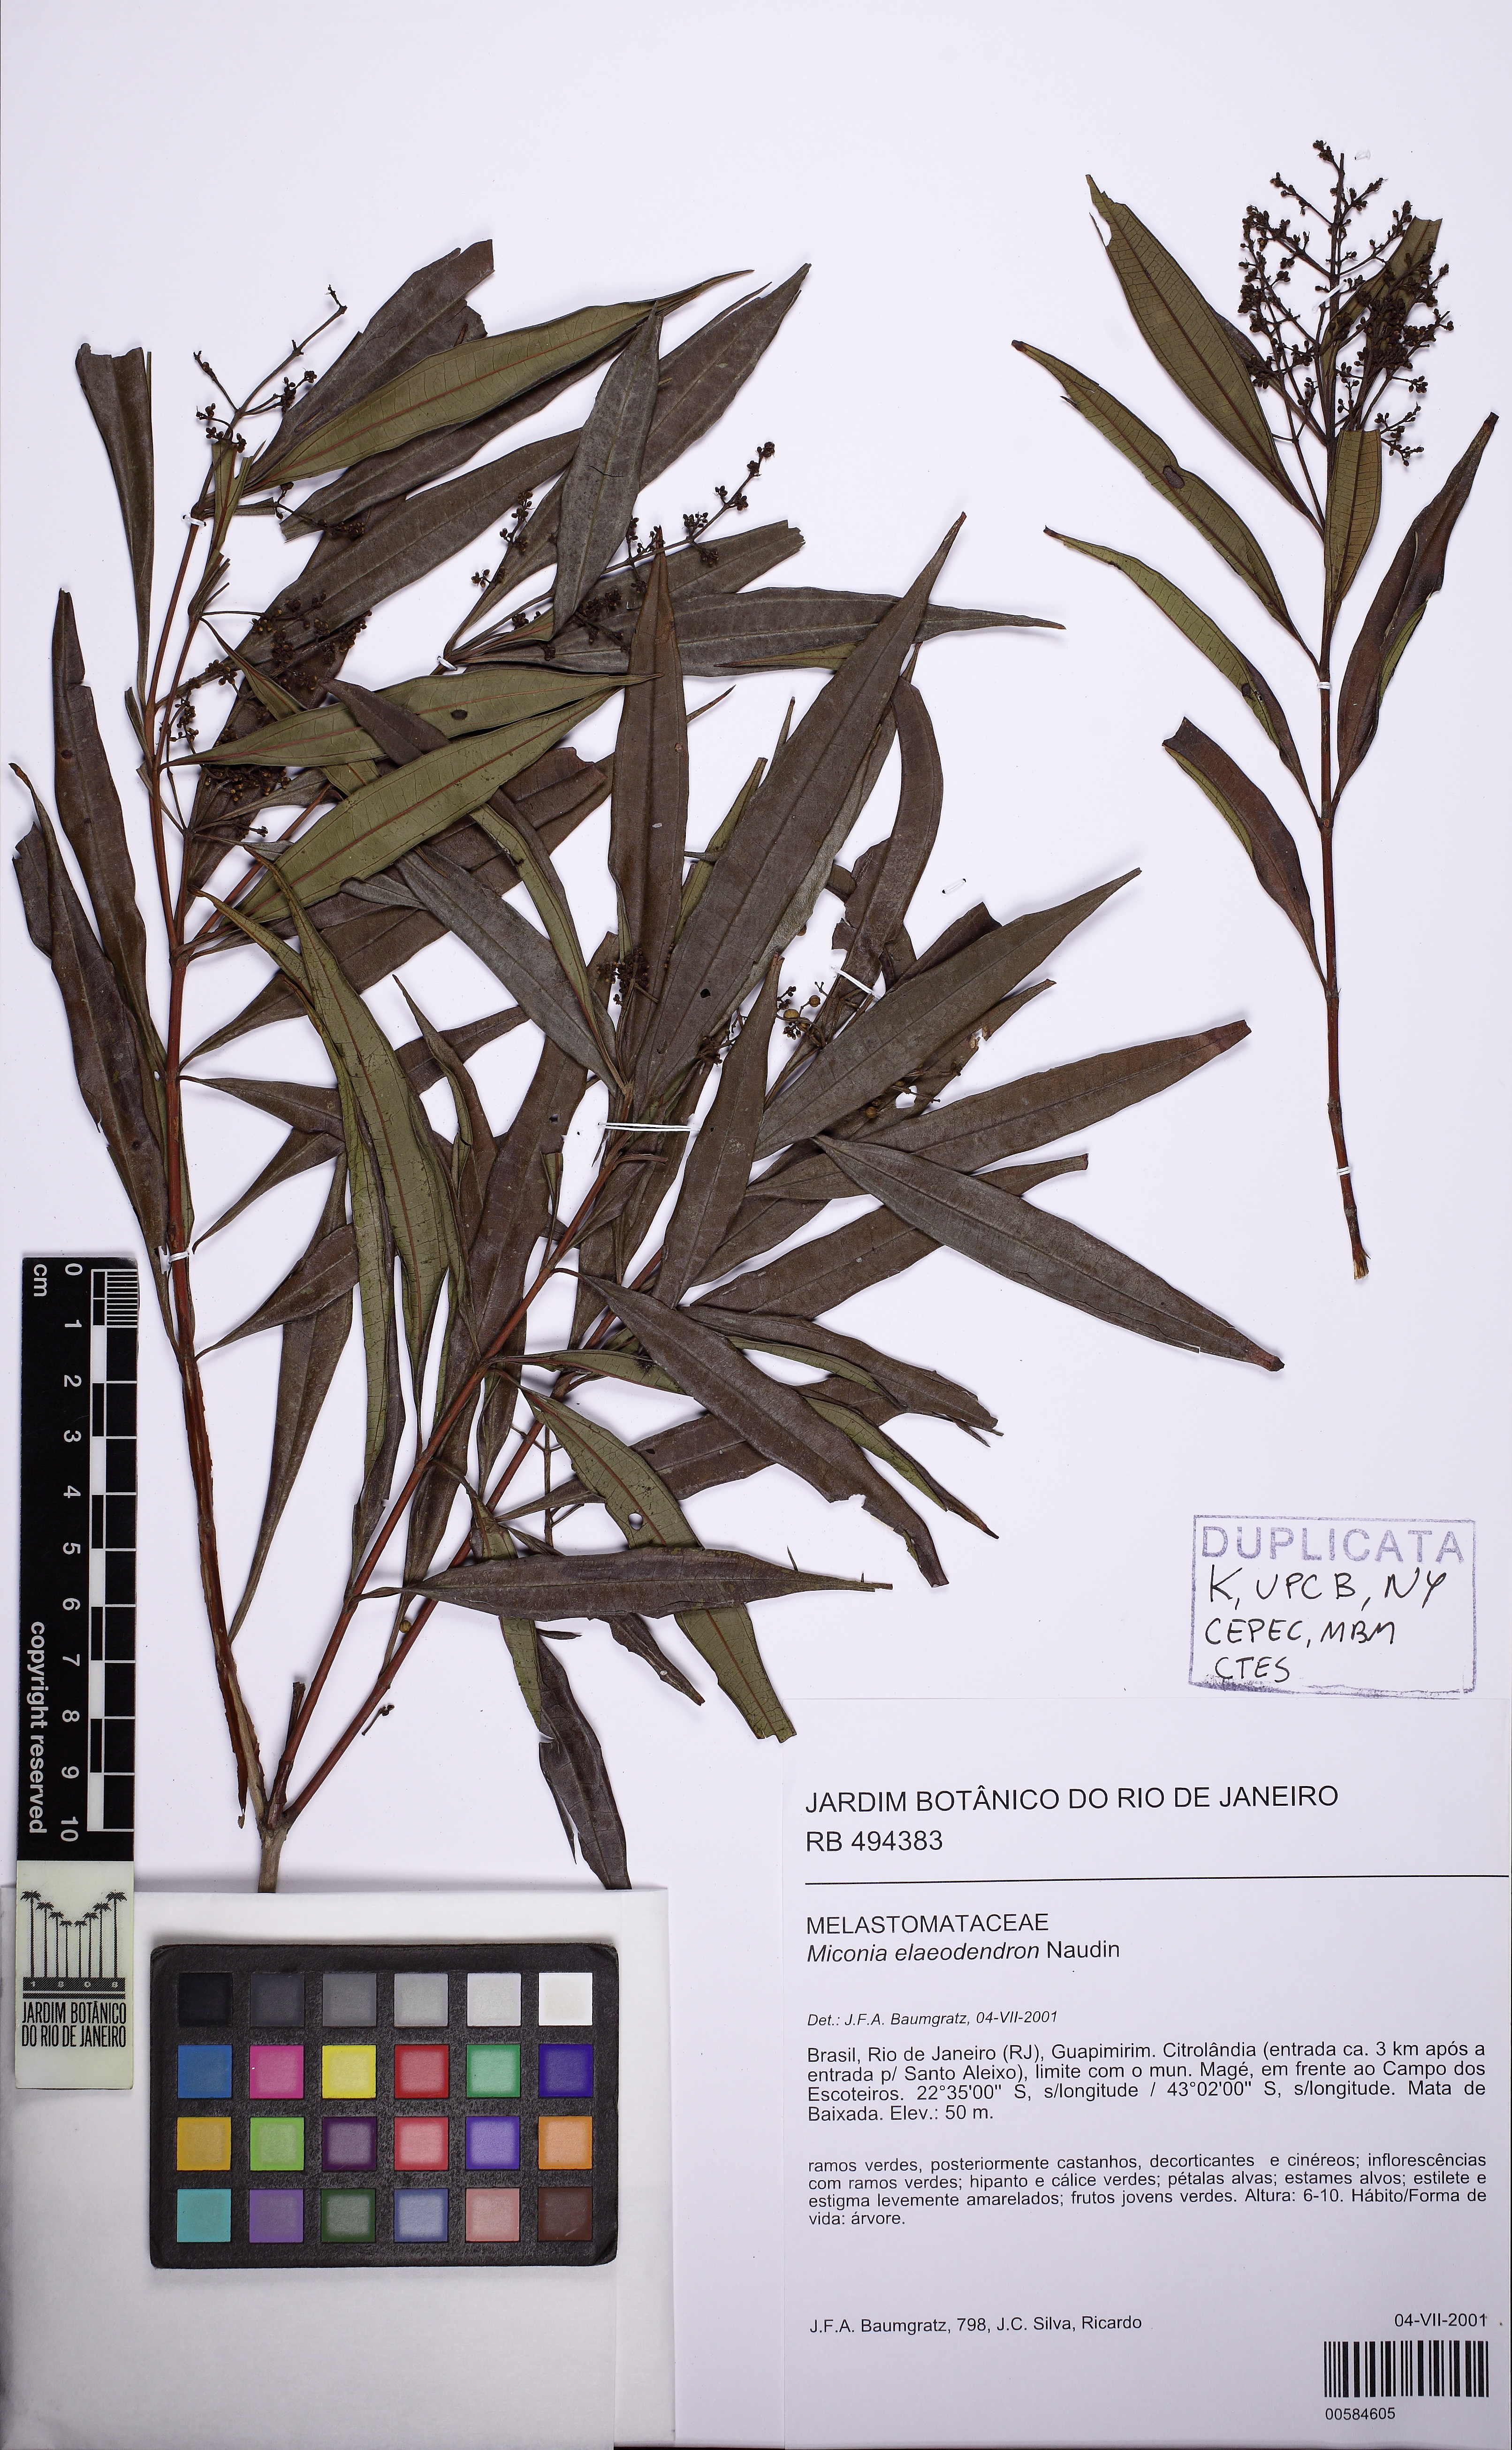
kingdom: Plantae
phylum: Tracheophyta
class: Magnoliopsida
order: Myrtales
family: Melastomataceae
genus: Miconia
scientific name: Miconia elaeodendron
